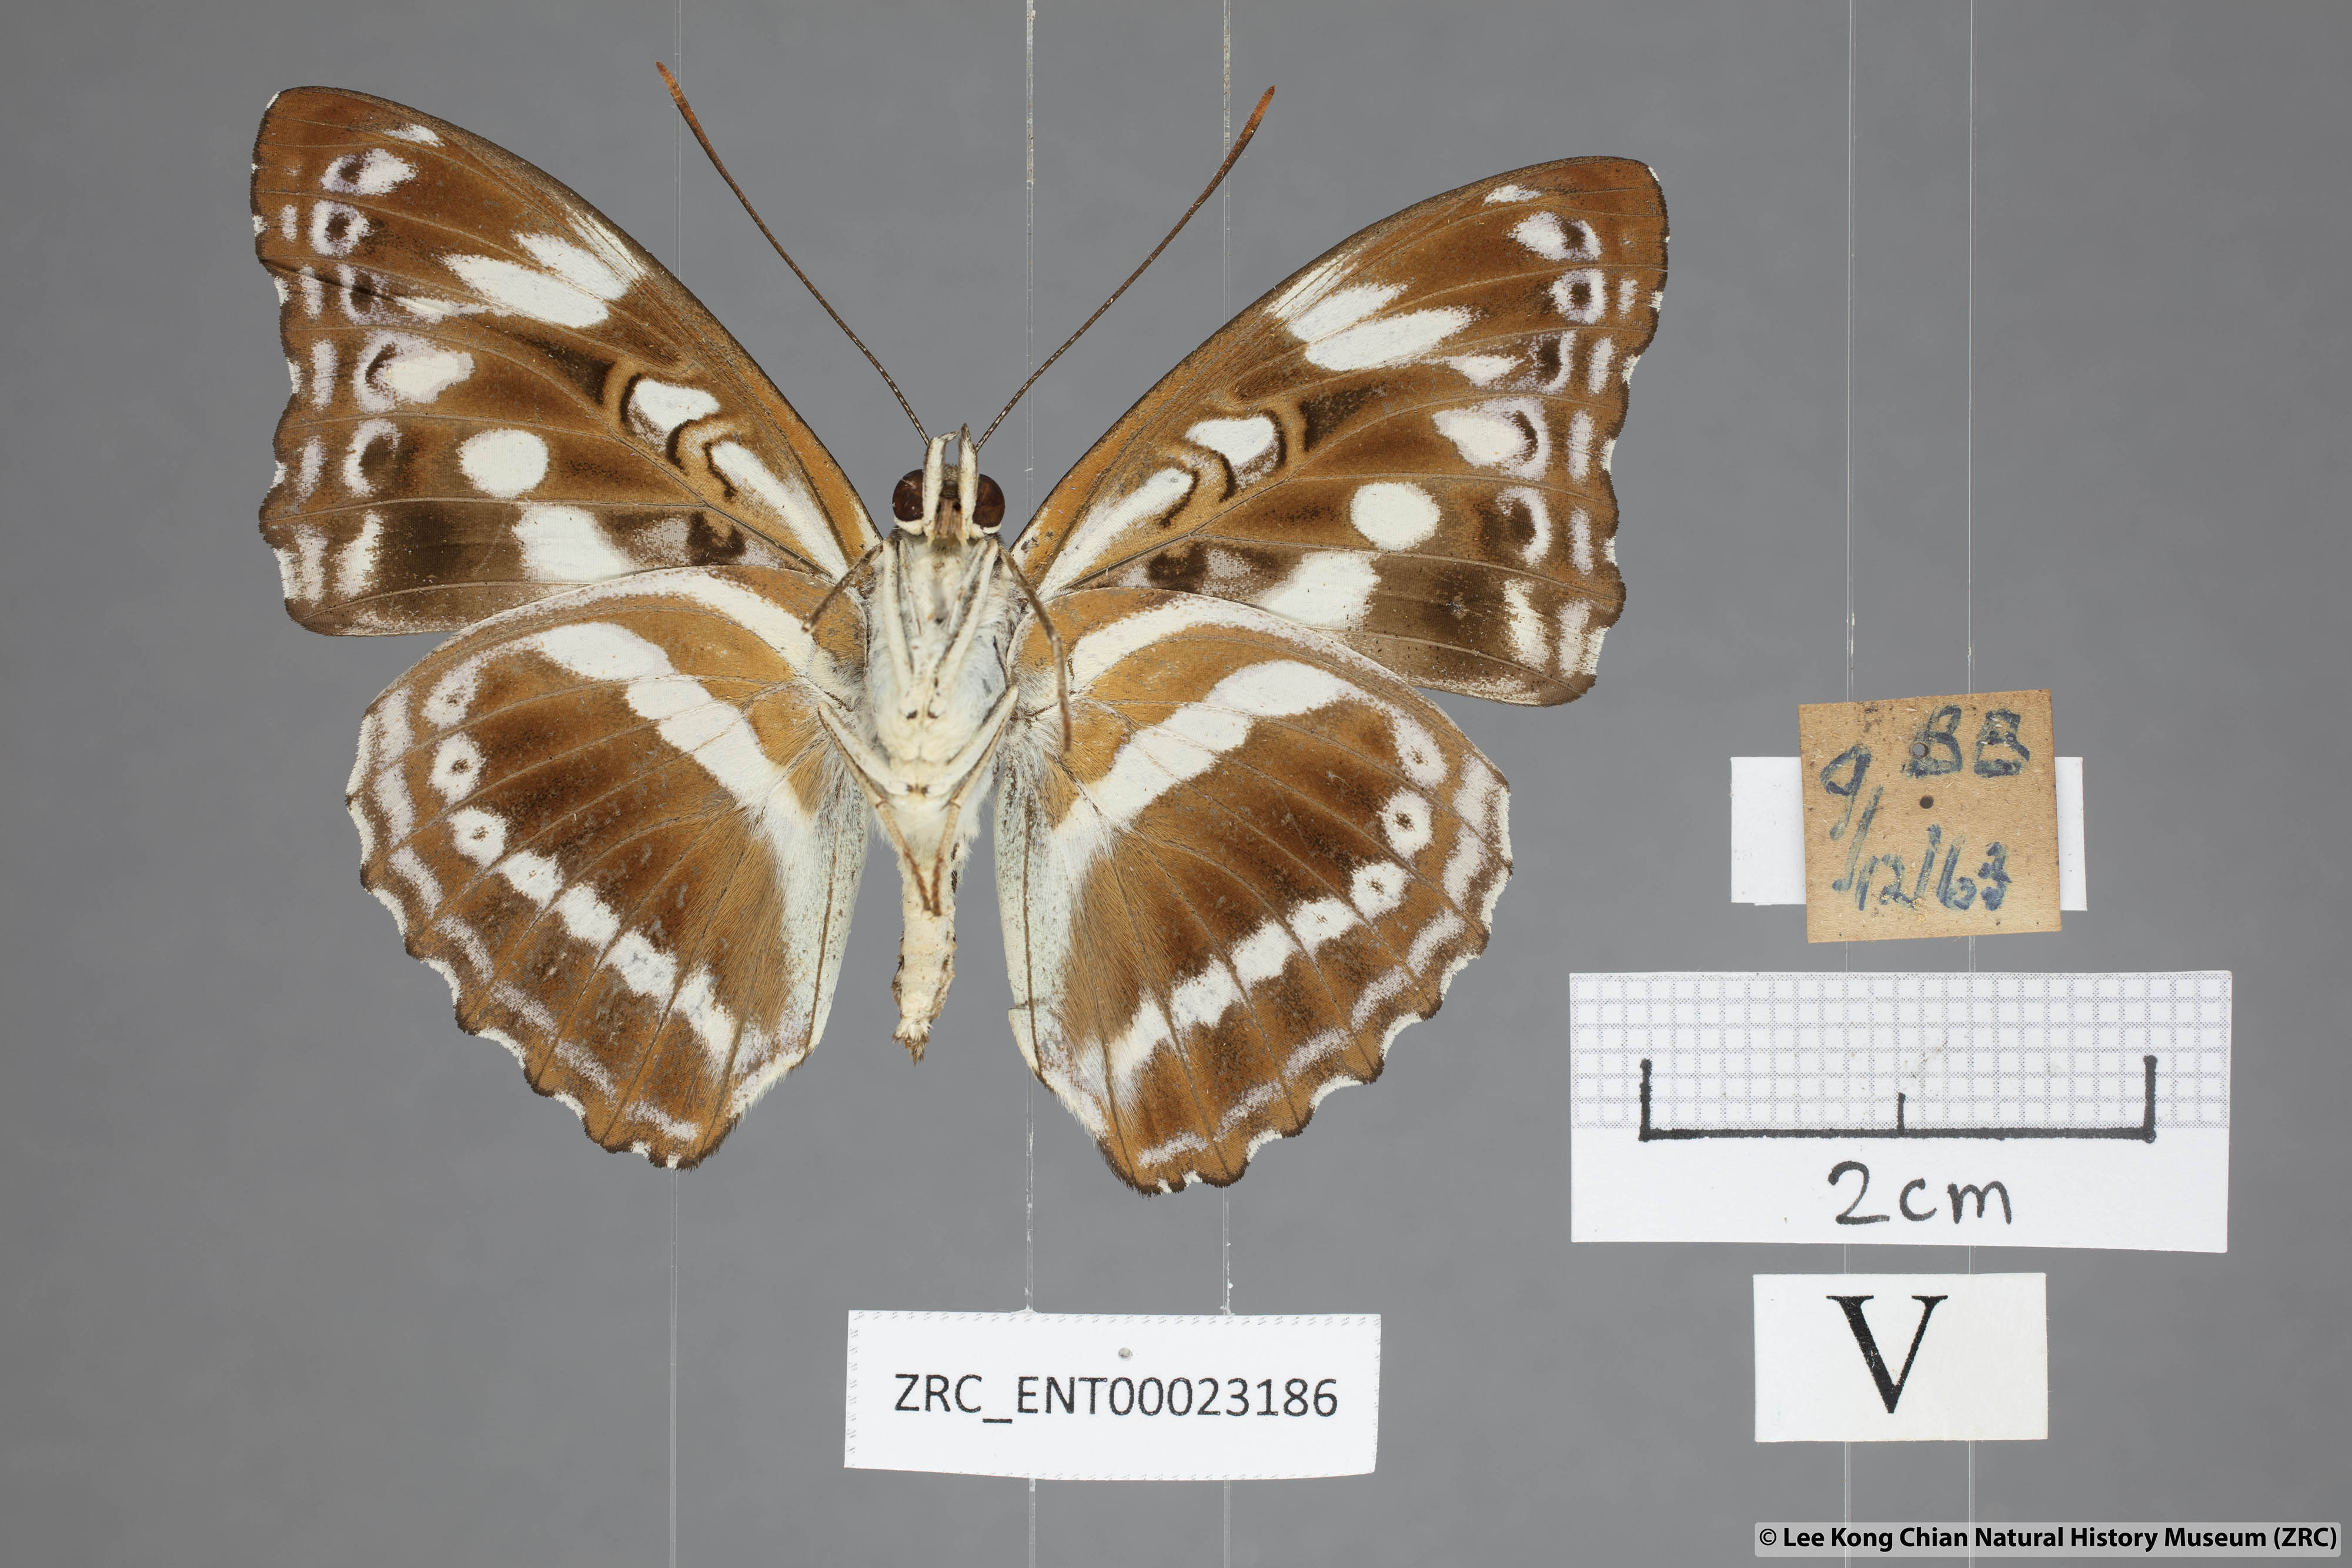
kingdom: Animalia
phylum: Arthropoda
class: Insecta
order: Lepidoptera
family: Nymphalidae
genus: Parathyma
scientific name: Parathyma asura
